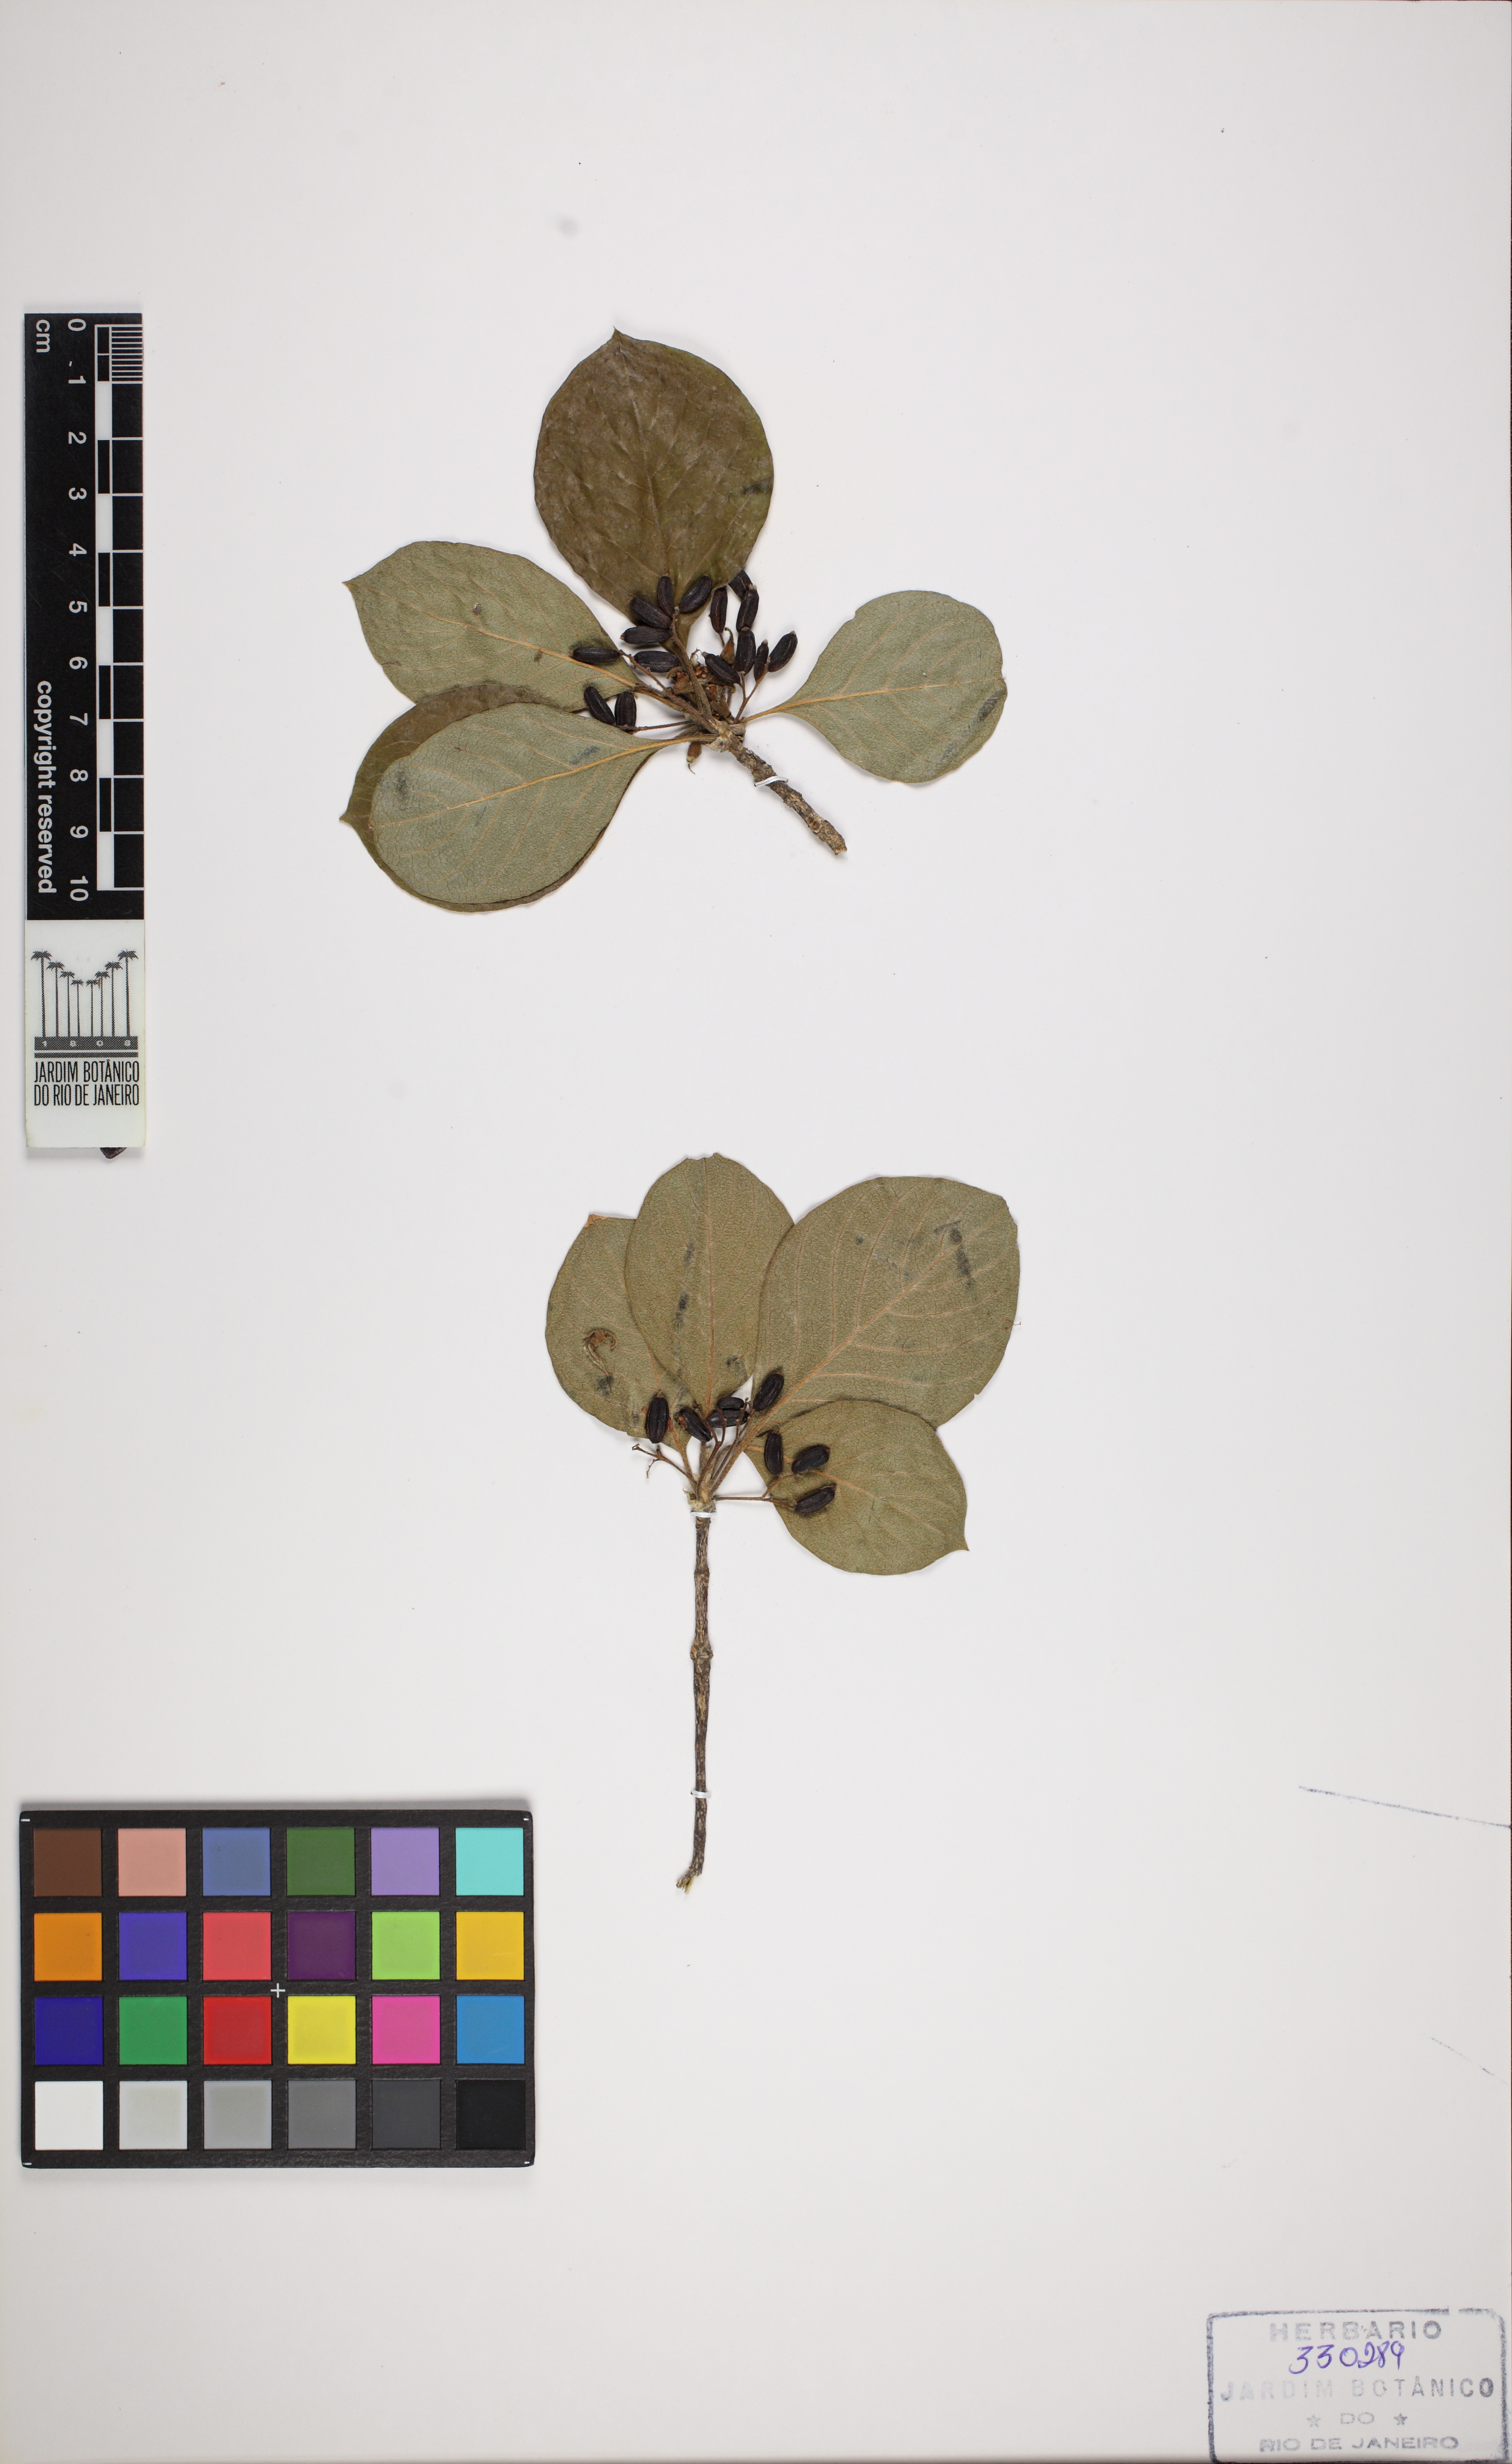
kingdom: Plantae
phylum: Tracheophyta
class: Magnoliopsida
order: Gentianales
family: Rubiaceae
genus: Chomelia
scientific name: Chomelia ribesioides
